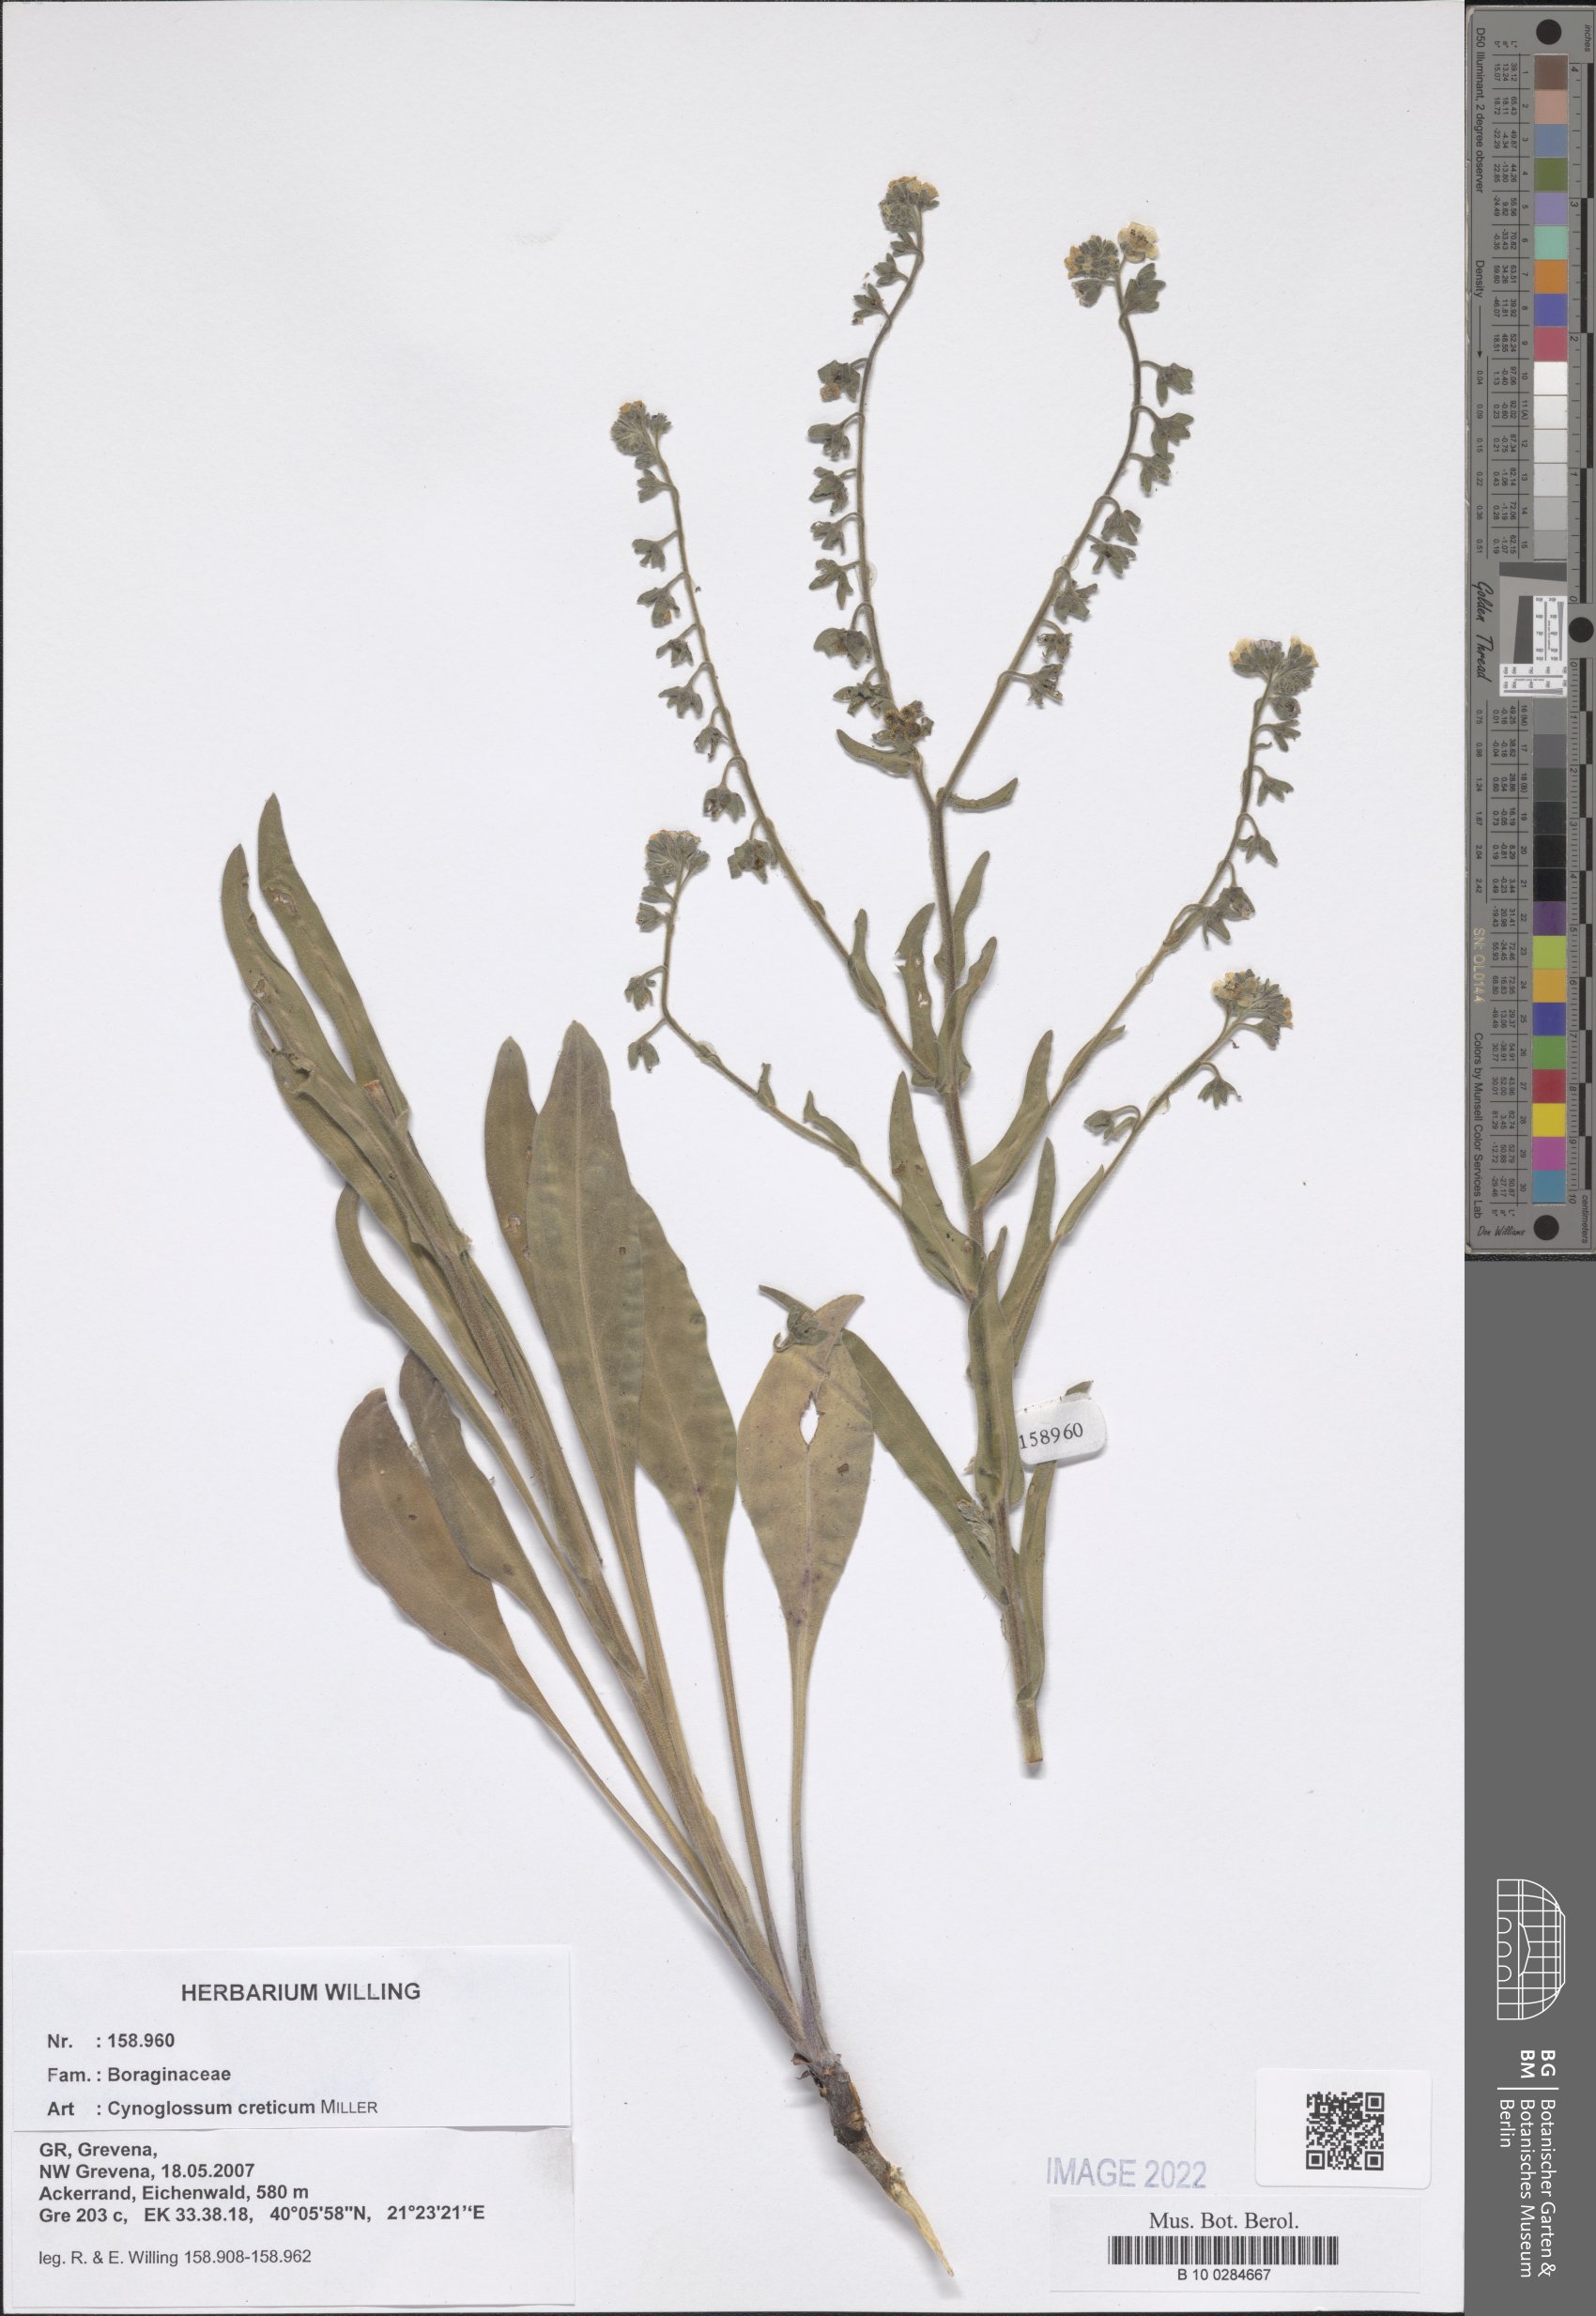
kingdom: Plantae
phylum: Tracheophyta
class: Magnoliopsida
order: Boraginales
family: Boraginaceae
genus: Cynoglossum
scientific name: Cynoglossum creticum
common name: Blue hound's tongue
